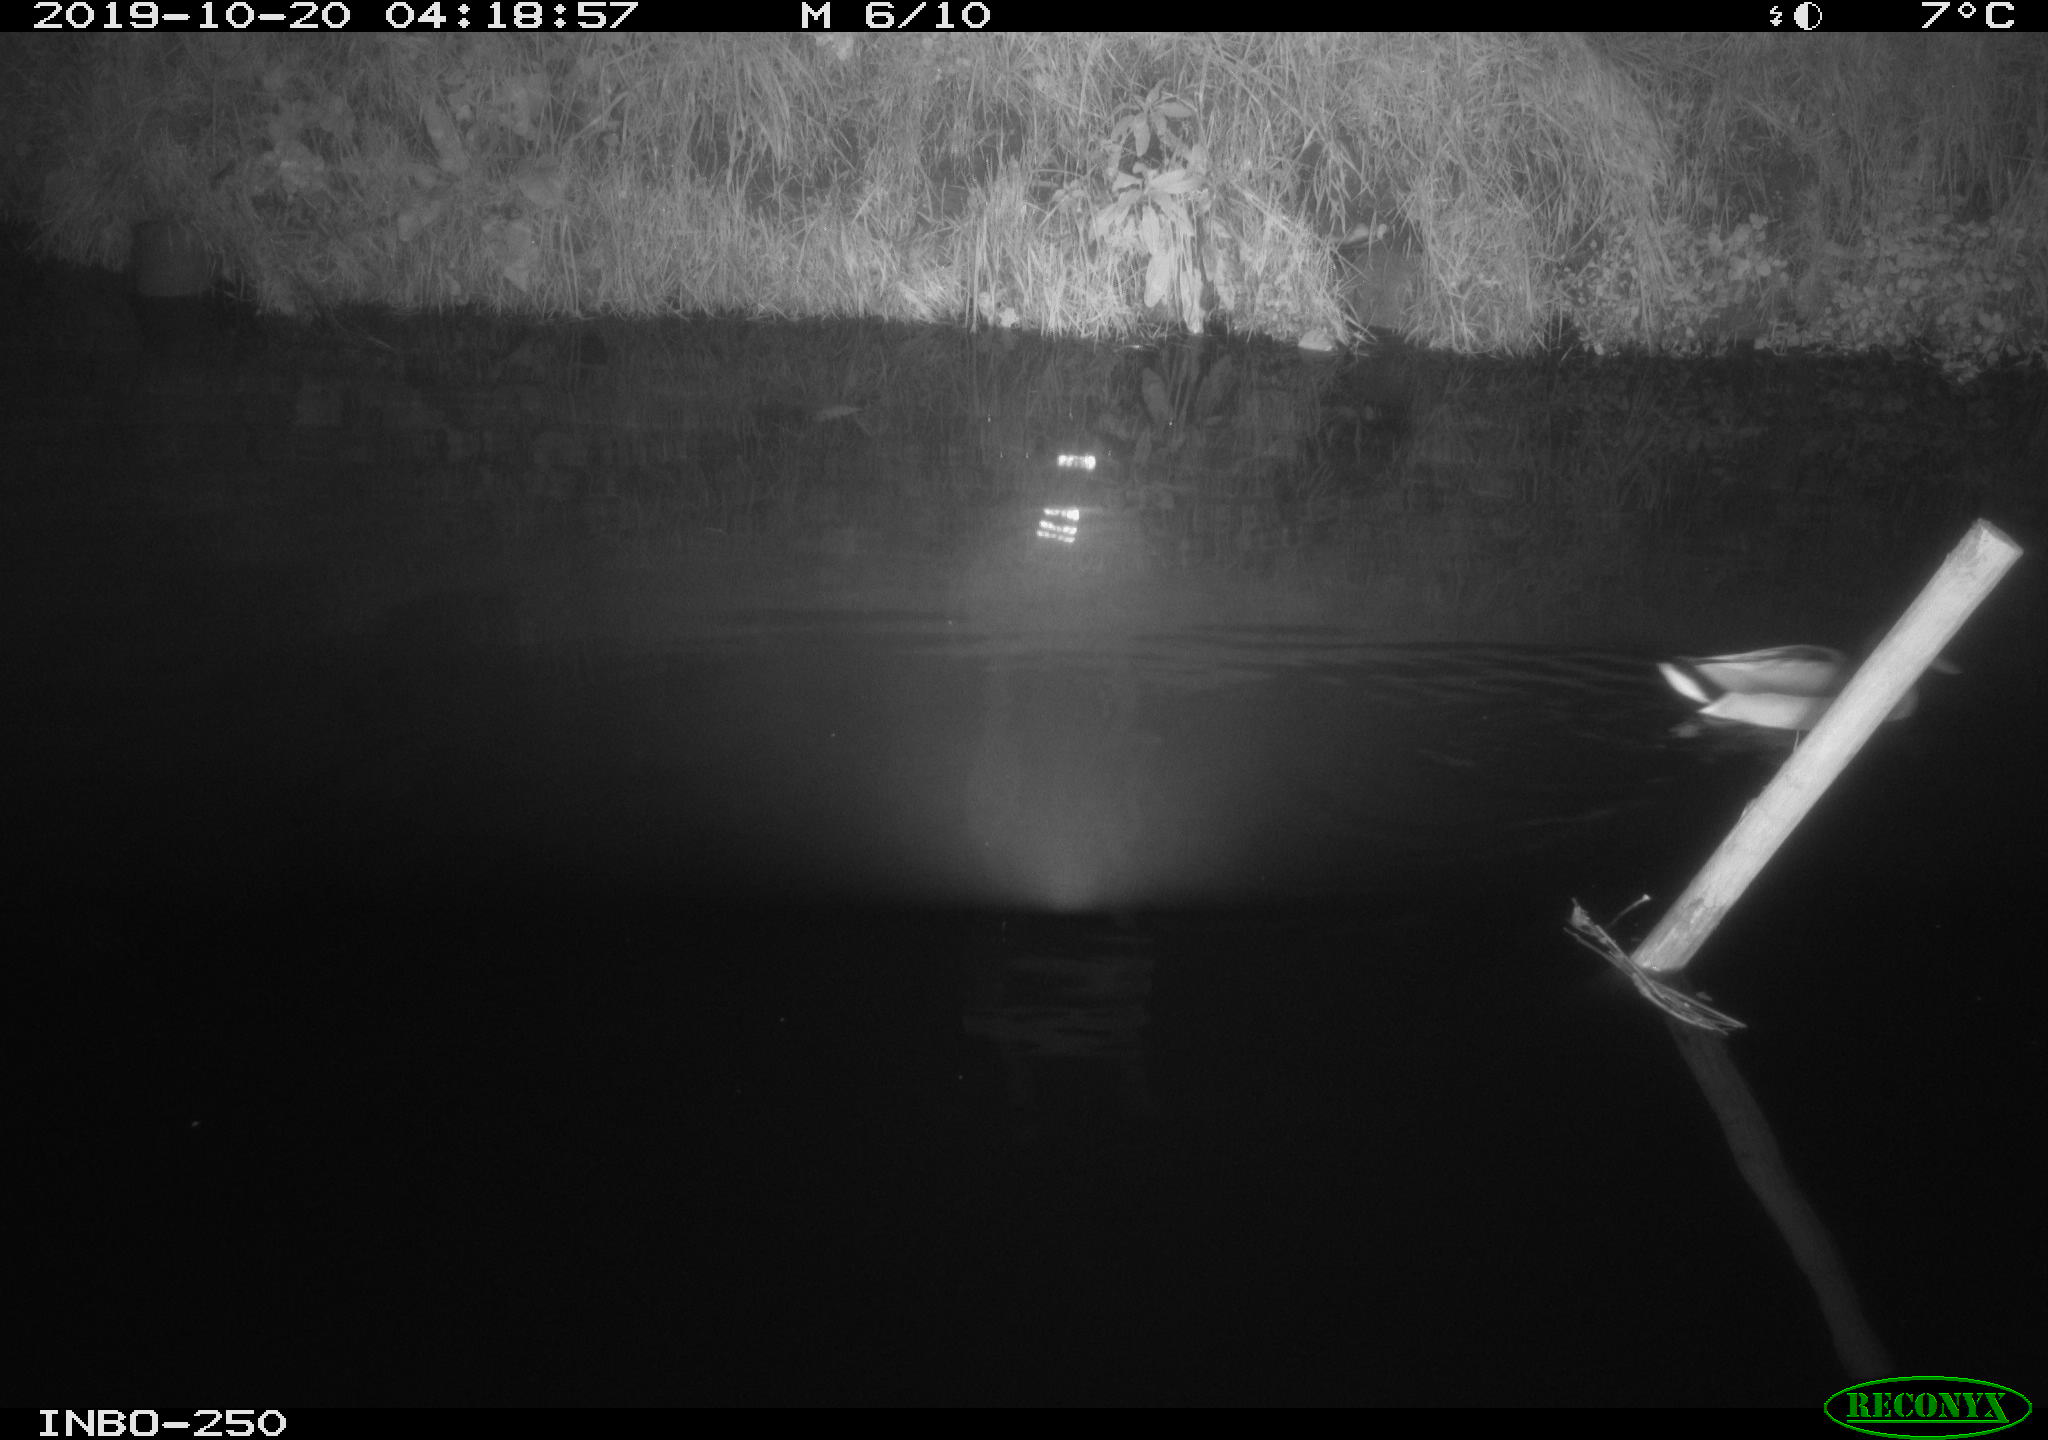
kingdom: Animalia
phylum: Chordata
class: Aves
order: Anseriformes
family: Anatidae
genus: Anas
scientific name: Anas platyrhynchos
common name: Mallard
